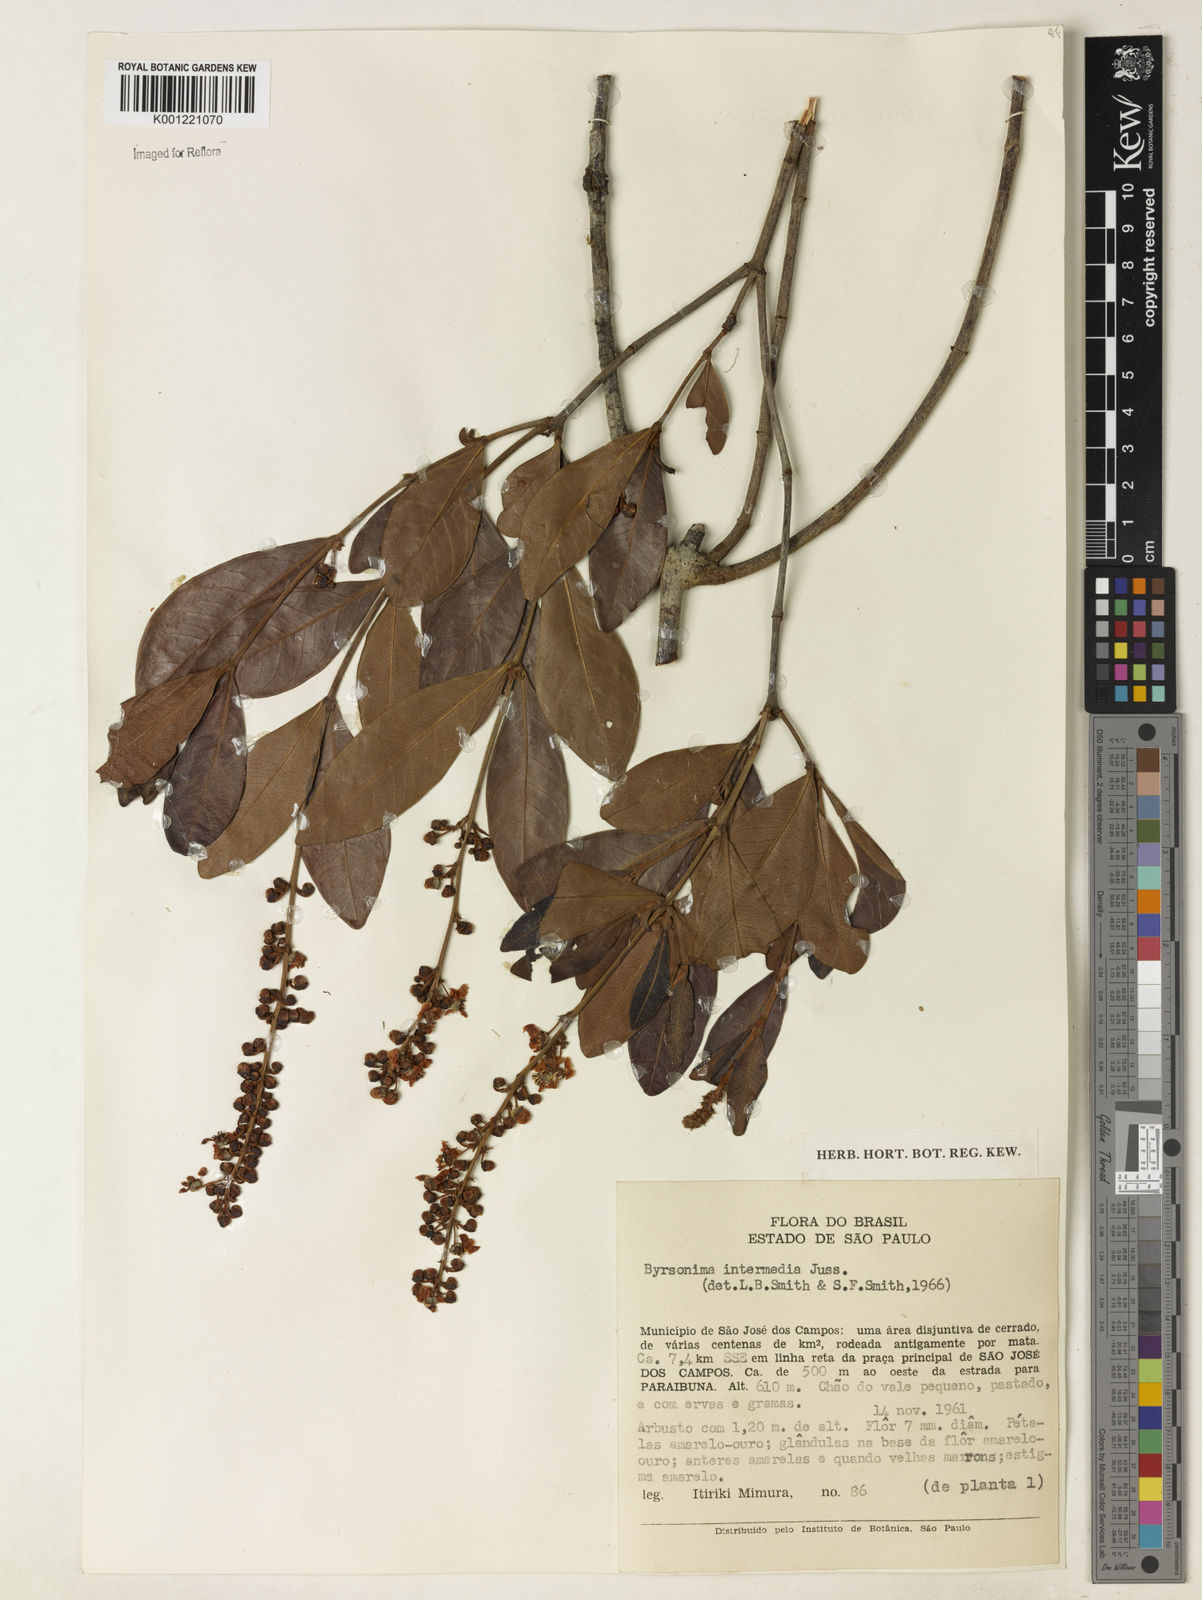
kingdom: Plantae
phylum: Tracheophyta
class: Magnoliopsida
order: Malpighiales
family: Malpighiaceae
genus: Byrsonima
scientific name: Byrsonima intermedia
